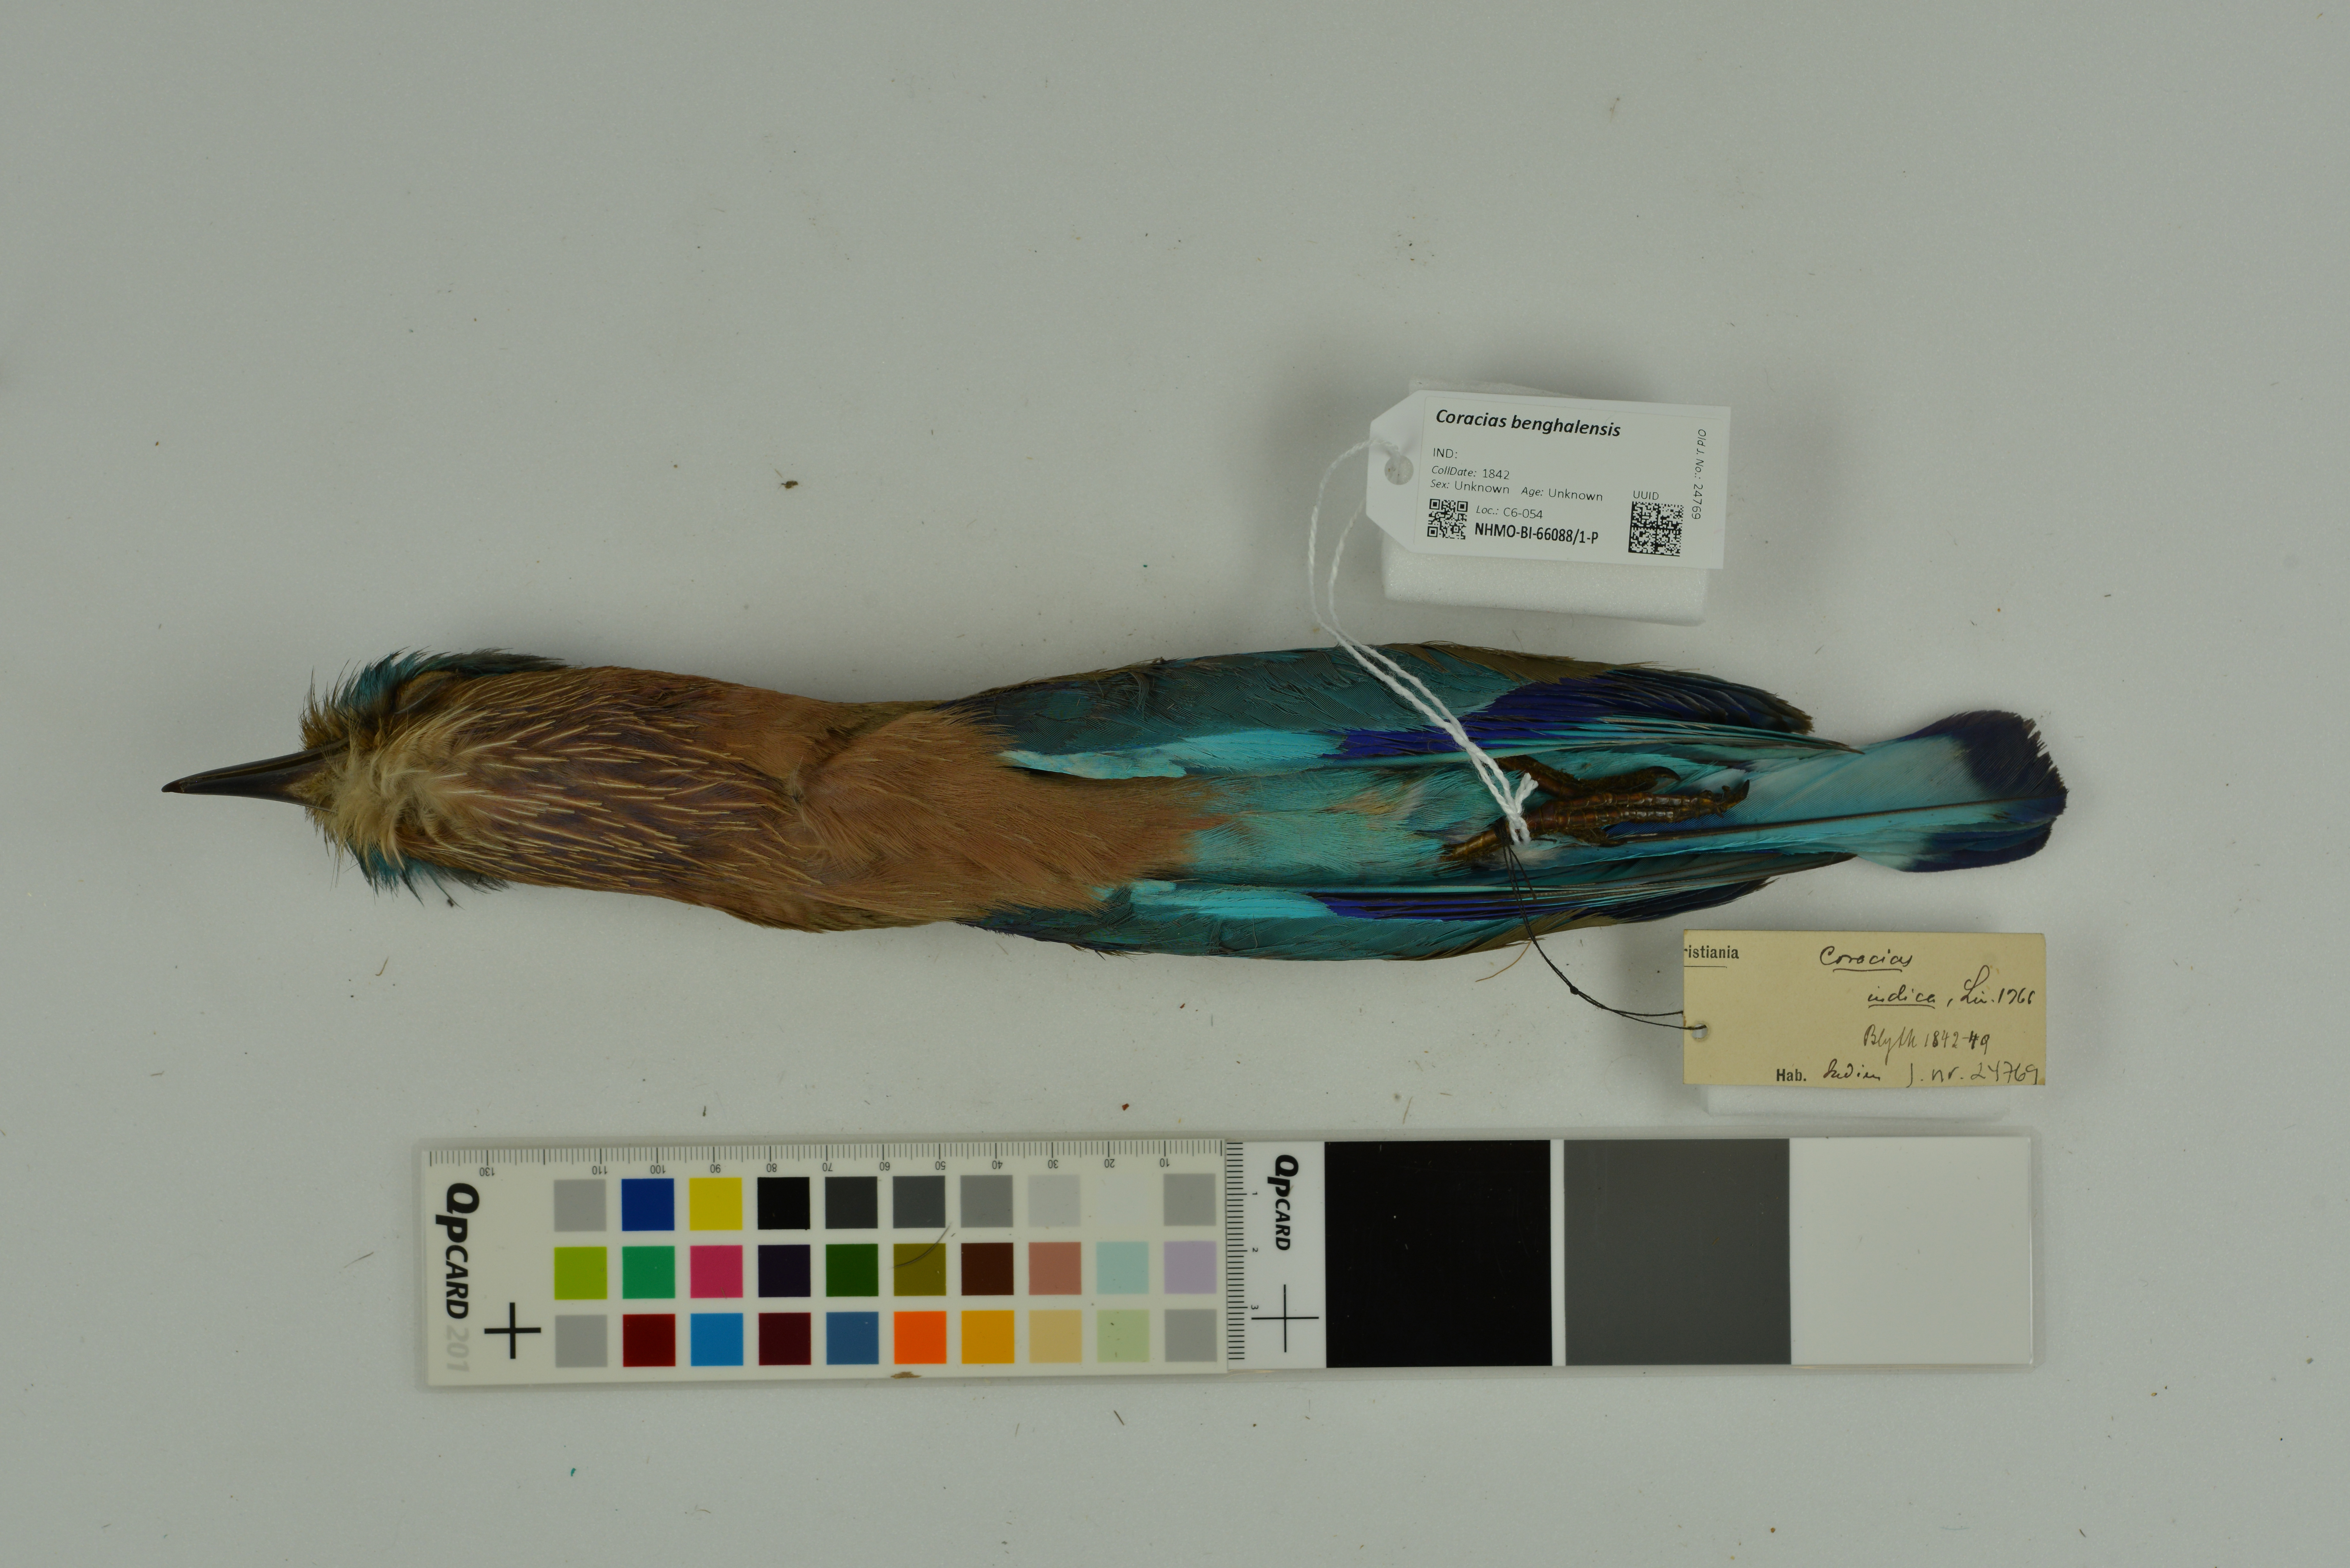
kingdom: Animalia
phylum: Chordata
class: Aves
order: Coraciiformes
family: Coraciidae
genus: Coracias
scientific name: Coracias benghalensis
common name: Indian roller
